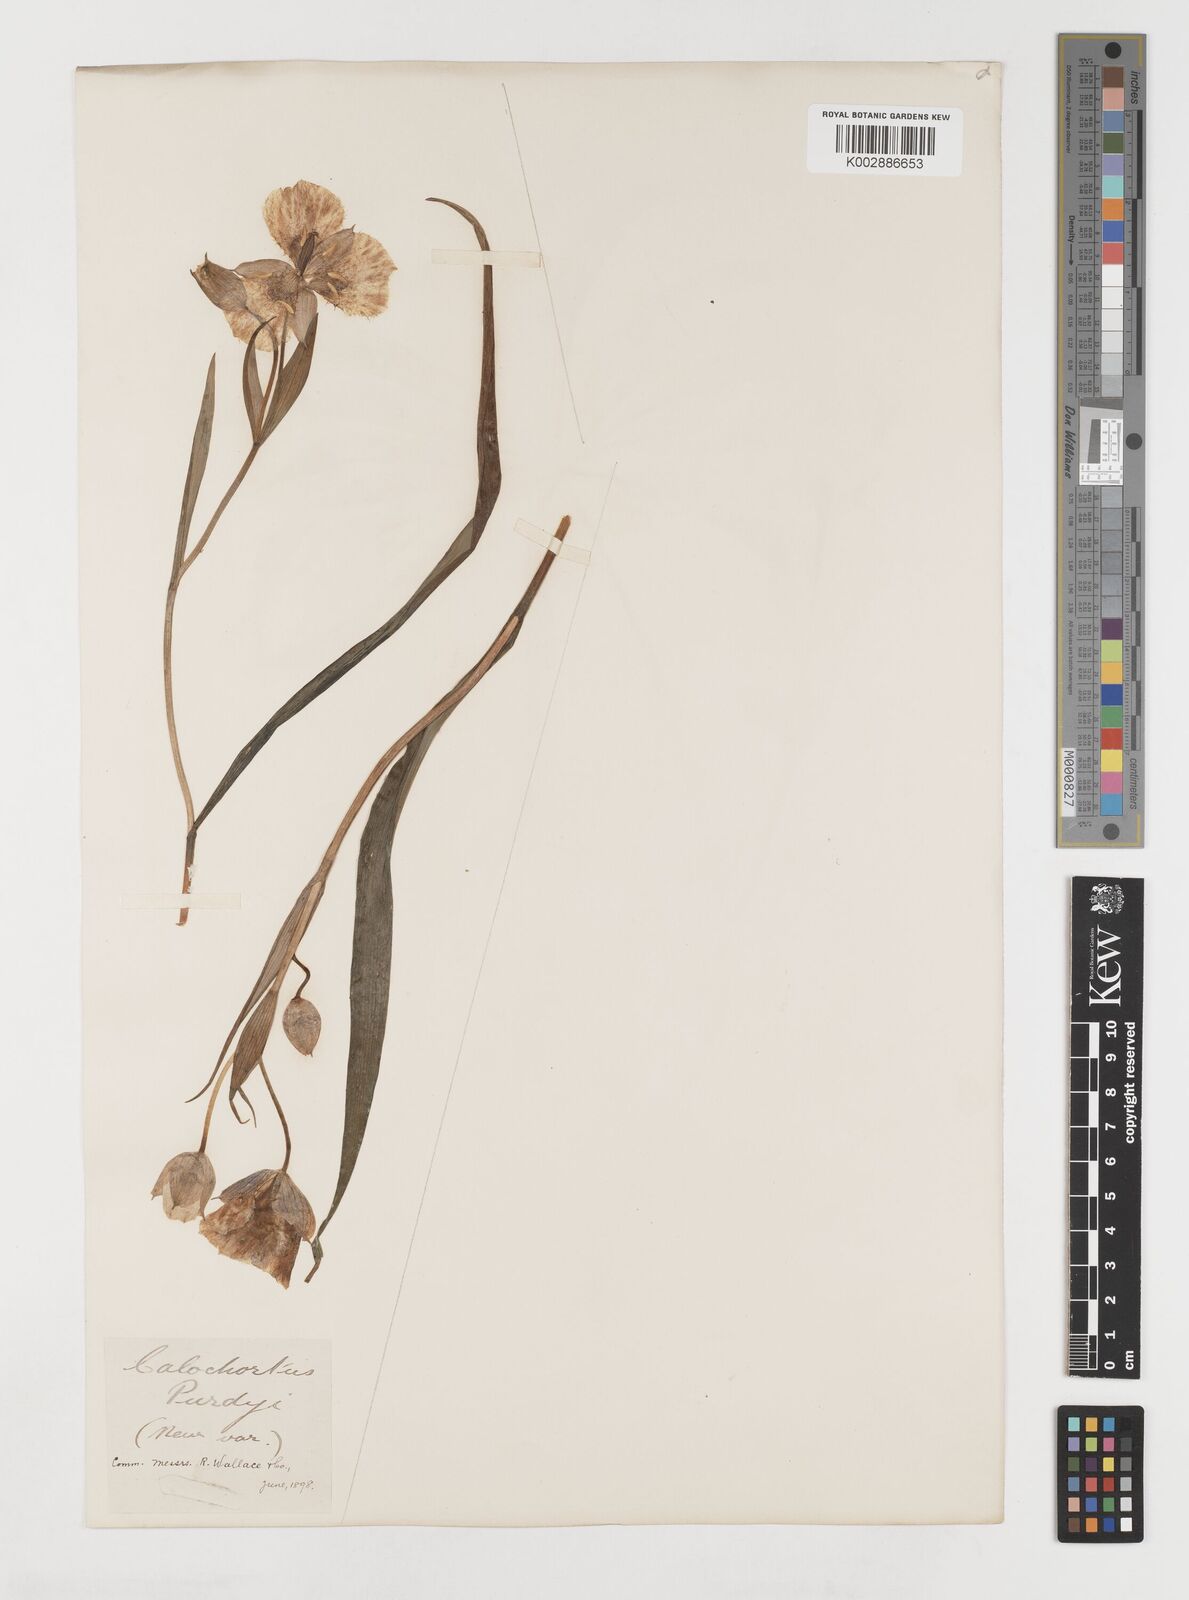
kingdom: Plantae
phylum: Tracheophyta
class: Liliopsida
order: Liliales
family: Liliaceae
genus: Calochortus
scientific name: Calochortus tolmiei
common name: Pussy-ears
